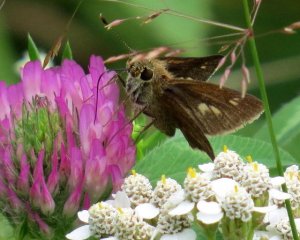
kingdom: Animalia
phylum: Arthropoda
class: Insecta
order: Lepidoptera
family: Hesperiidae
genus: Polites
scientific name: Polites egeremet
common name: Northern Broken-Dash
